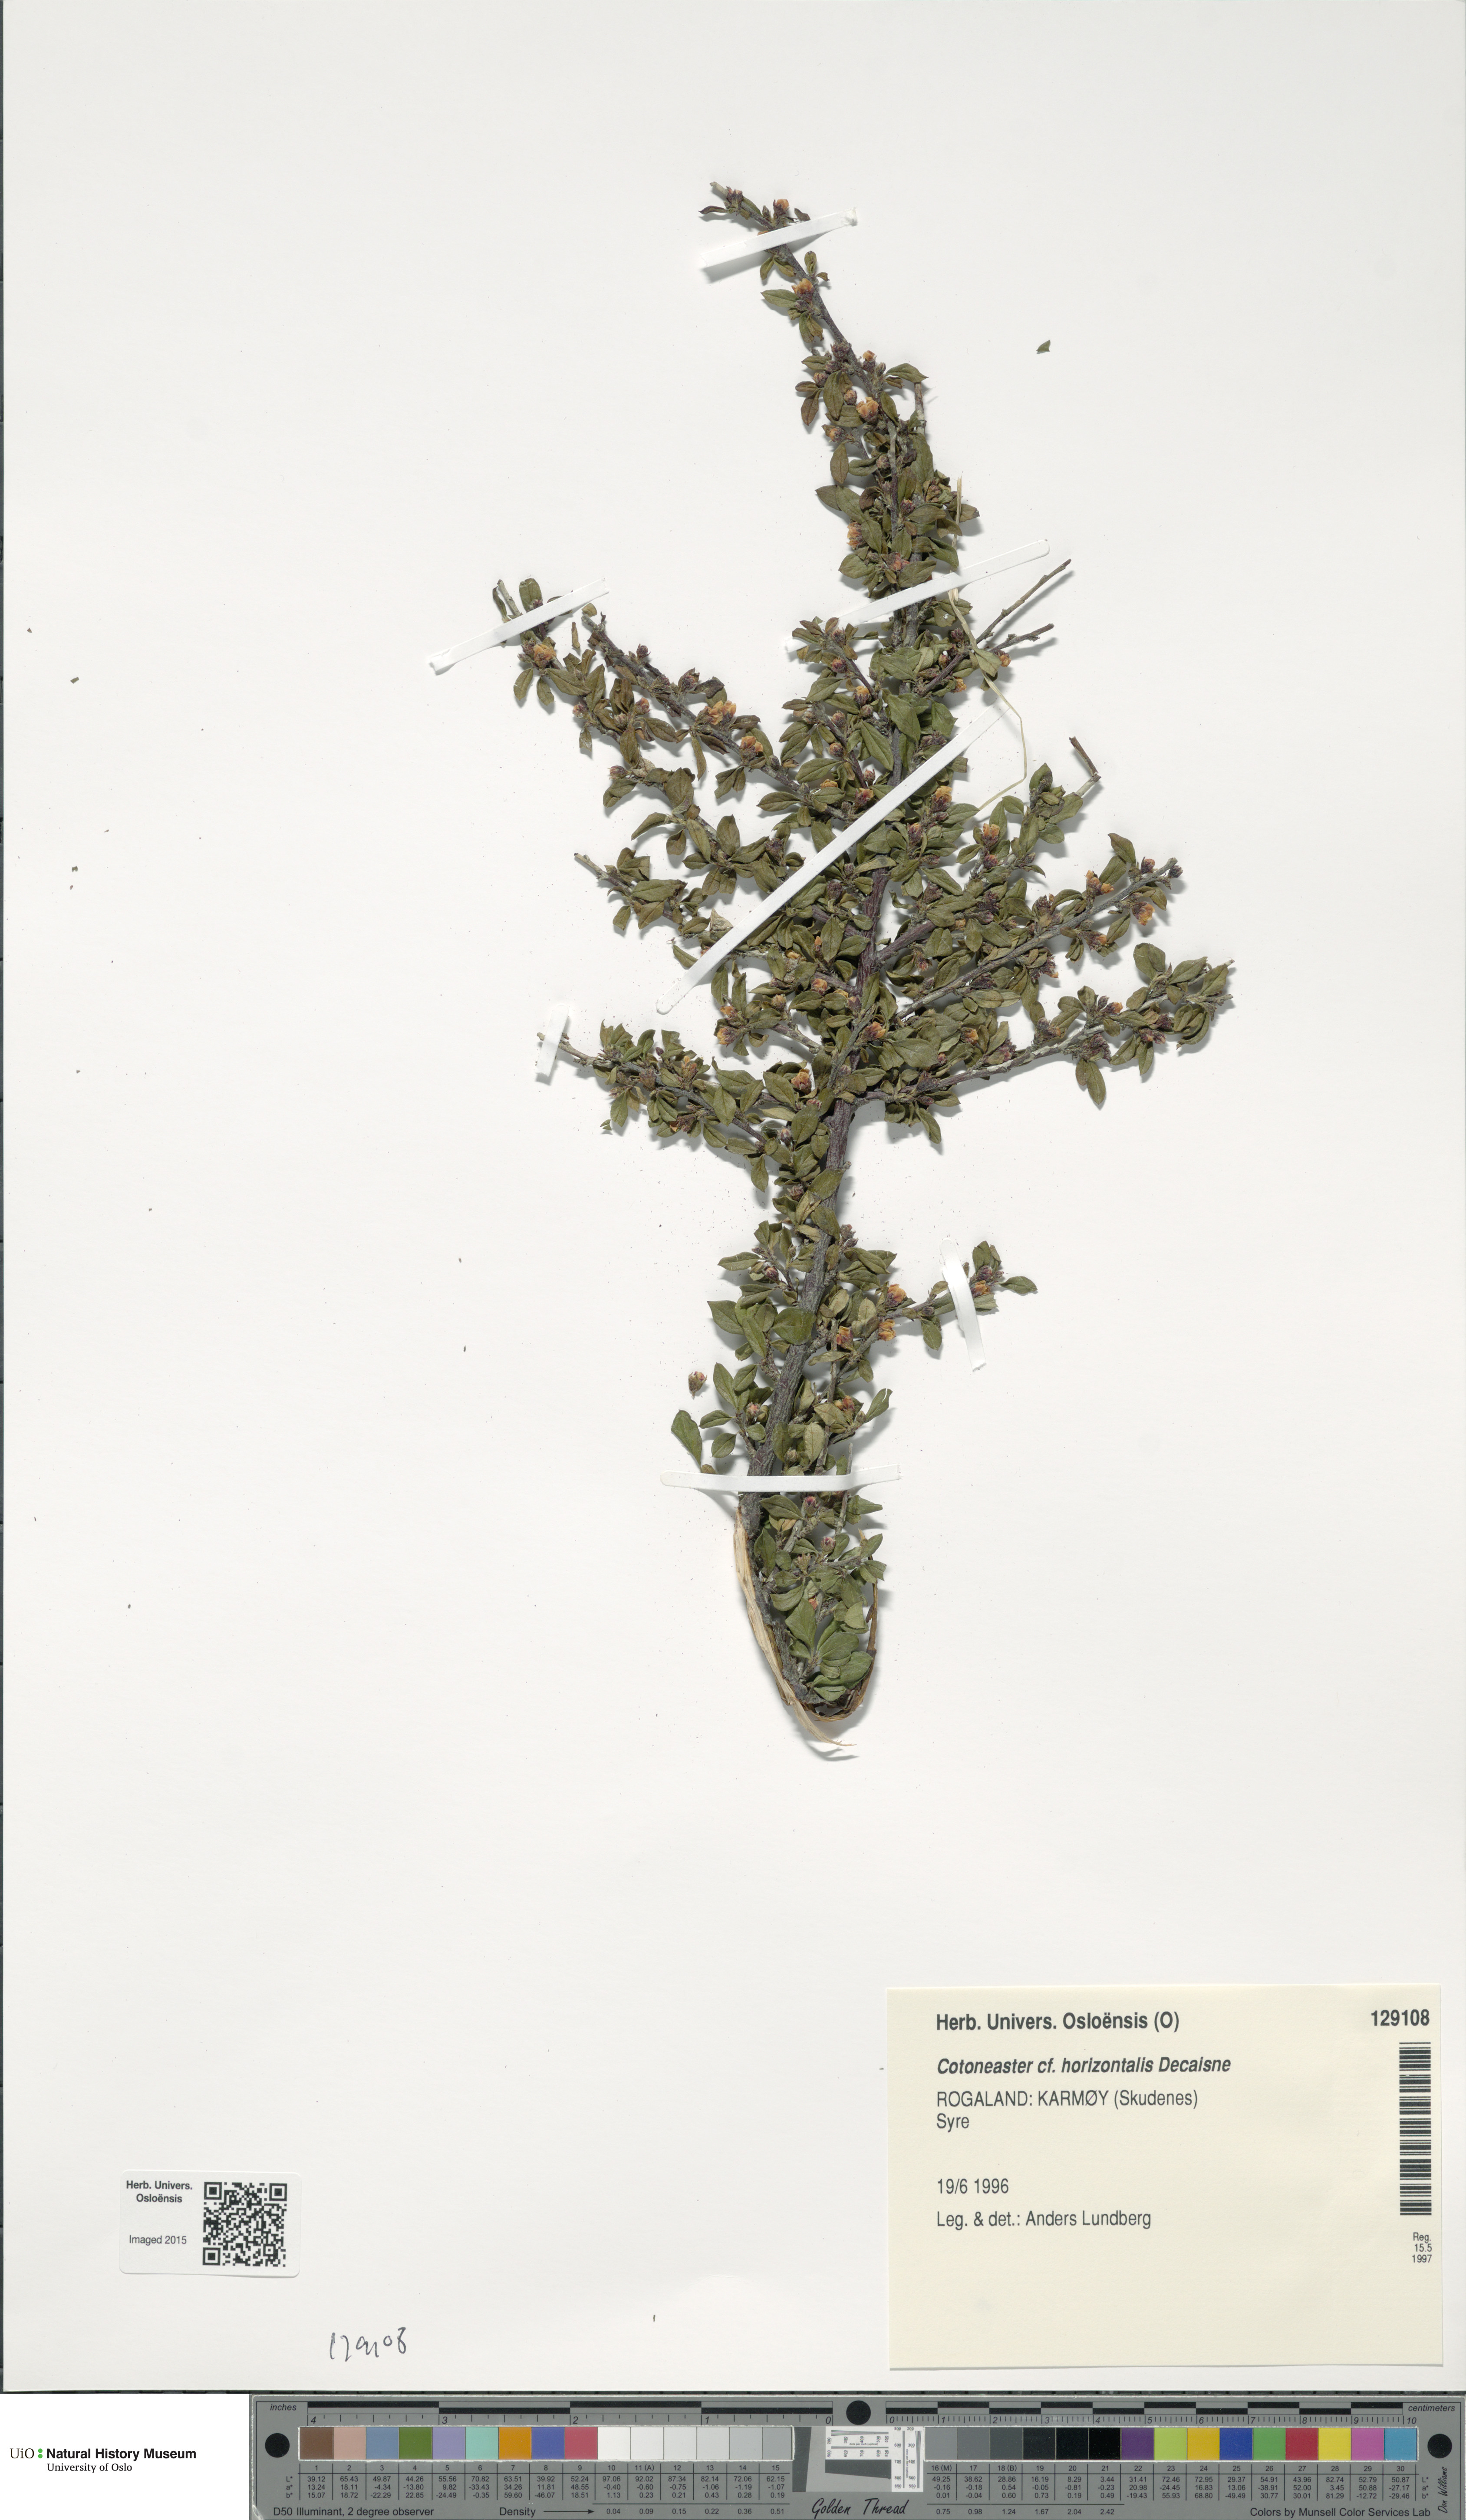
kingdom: Plantae
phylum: Tracheophyta
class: Magnoliopsida
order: Rosales
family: Rosaceae
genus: Cotoneaster
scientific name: Cotoneaster horizontalis
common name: Wall cotoneaster
